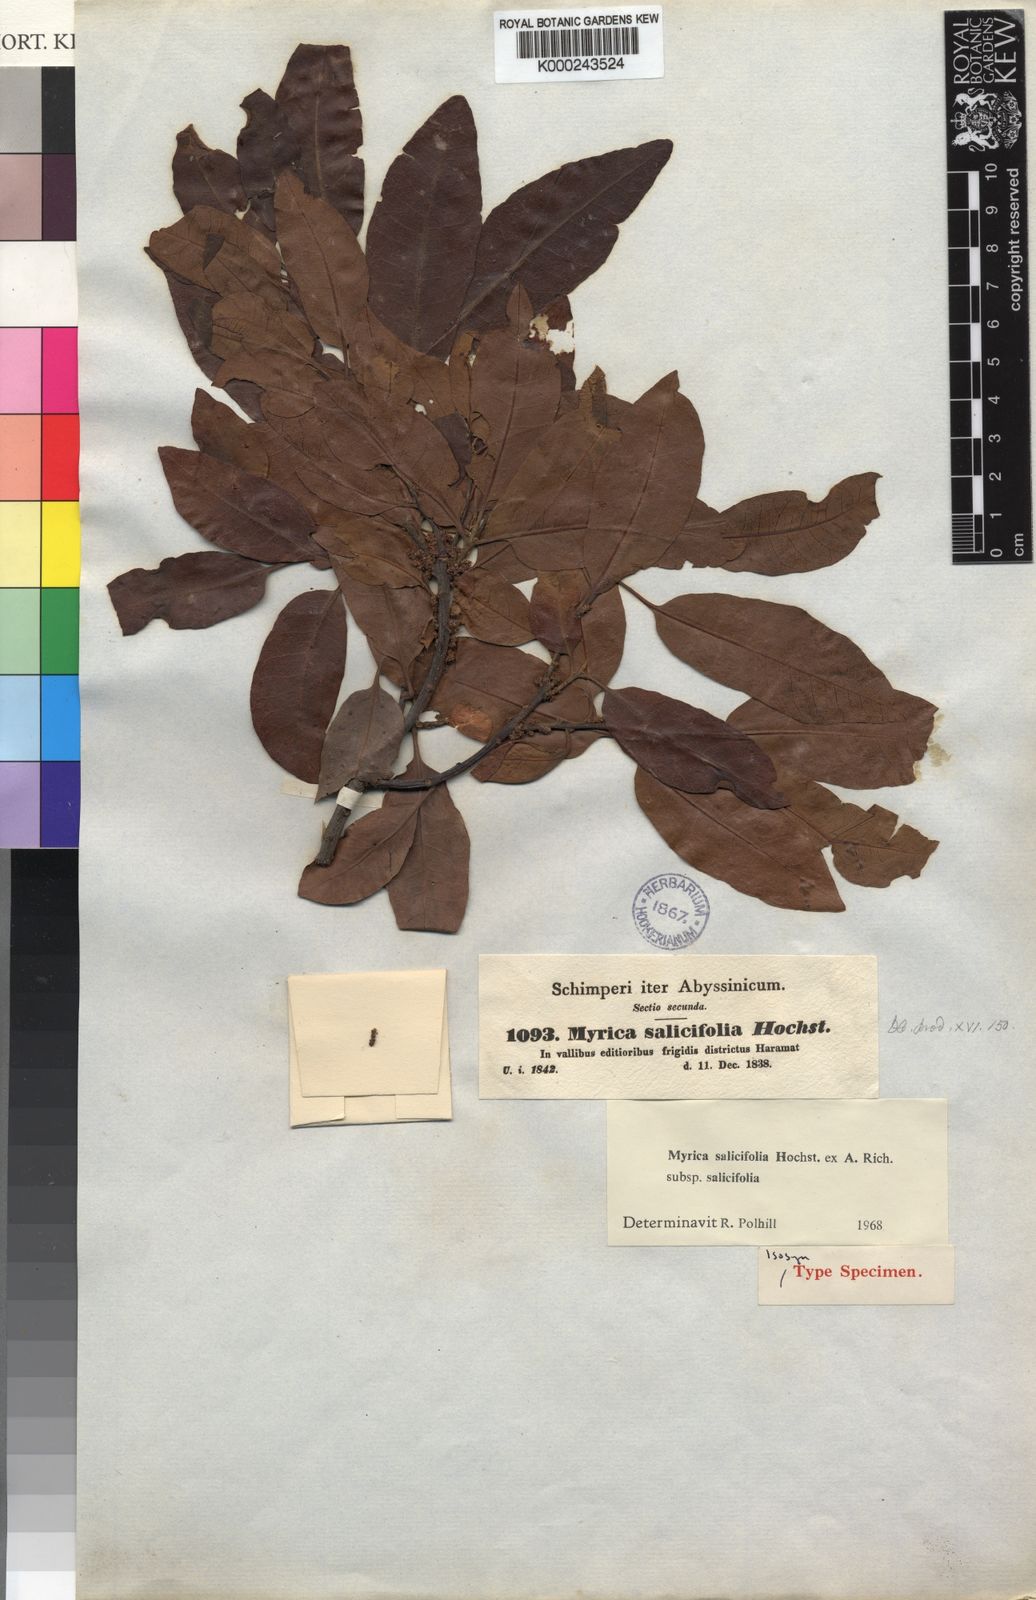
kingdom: Plantae
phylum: Tracheophyta
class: Magnoliopsida
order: Fagales
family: Myricaceae
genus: Morella
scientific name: Morella salicifolia
